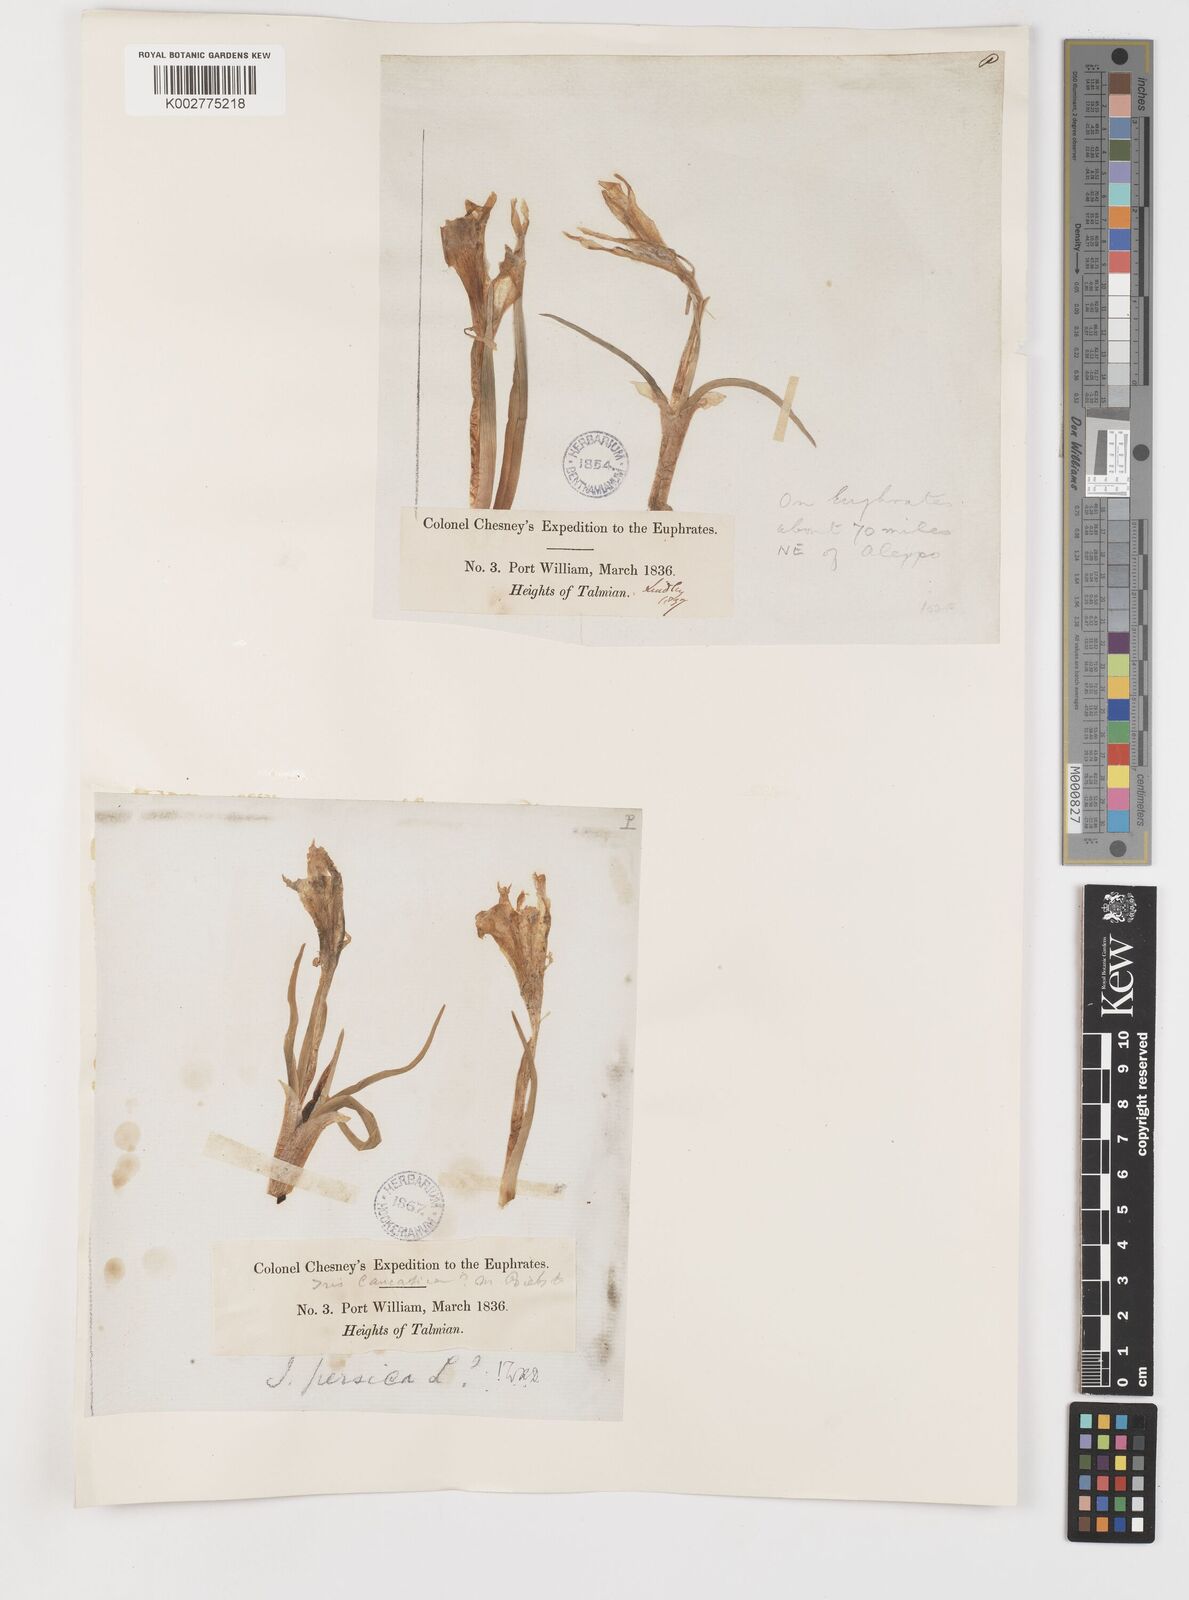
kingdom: Plantae
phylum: Tracheophyta
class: Liliopsida
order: Asparagales
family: Iridaceae
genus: Iris
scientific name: Iris persica
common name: Persian iris
